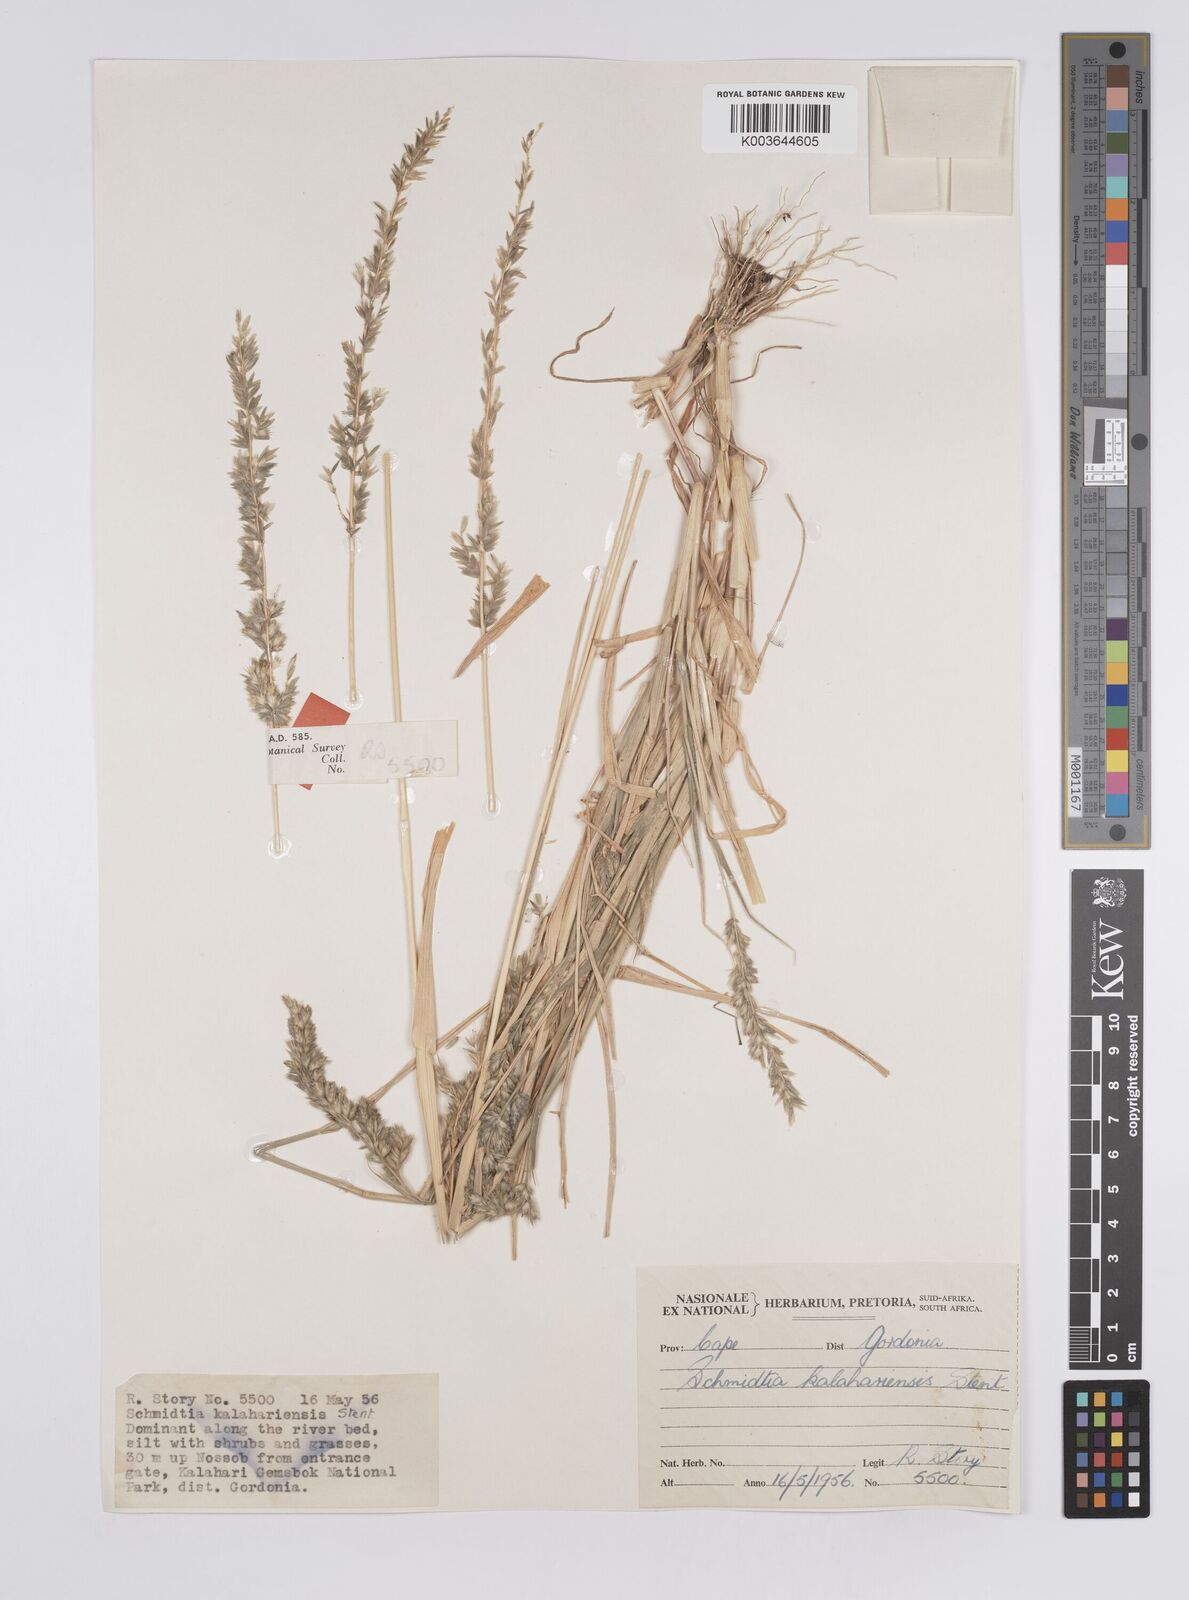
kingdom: Plantae
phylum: Tracheophyta
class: Liliopsida
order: Poales
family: Poaceae
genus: Schmidtia
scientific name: Schmidtia kalahariensis
